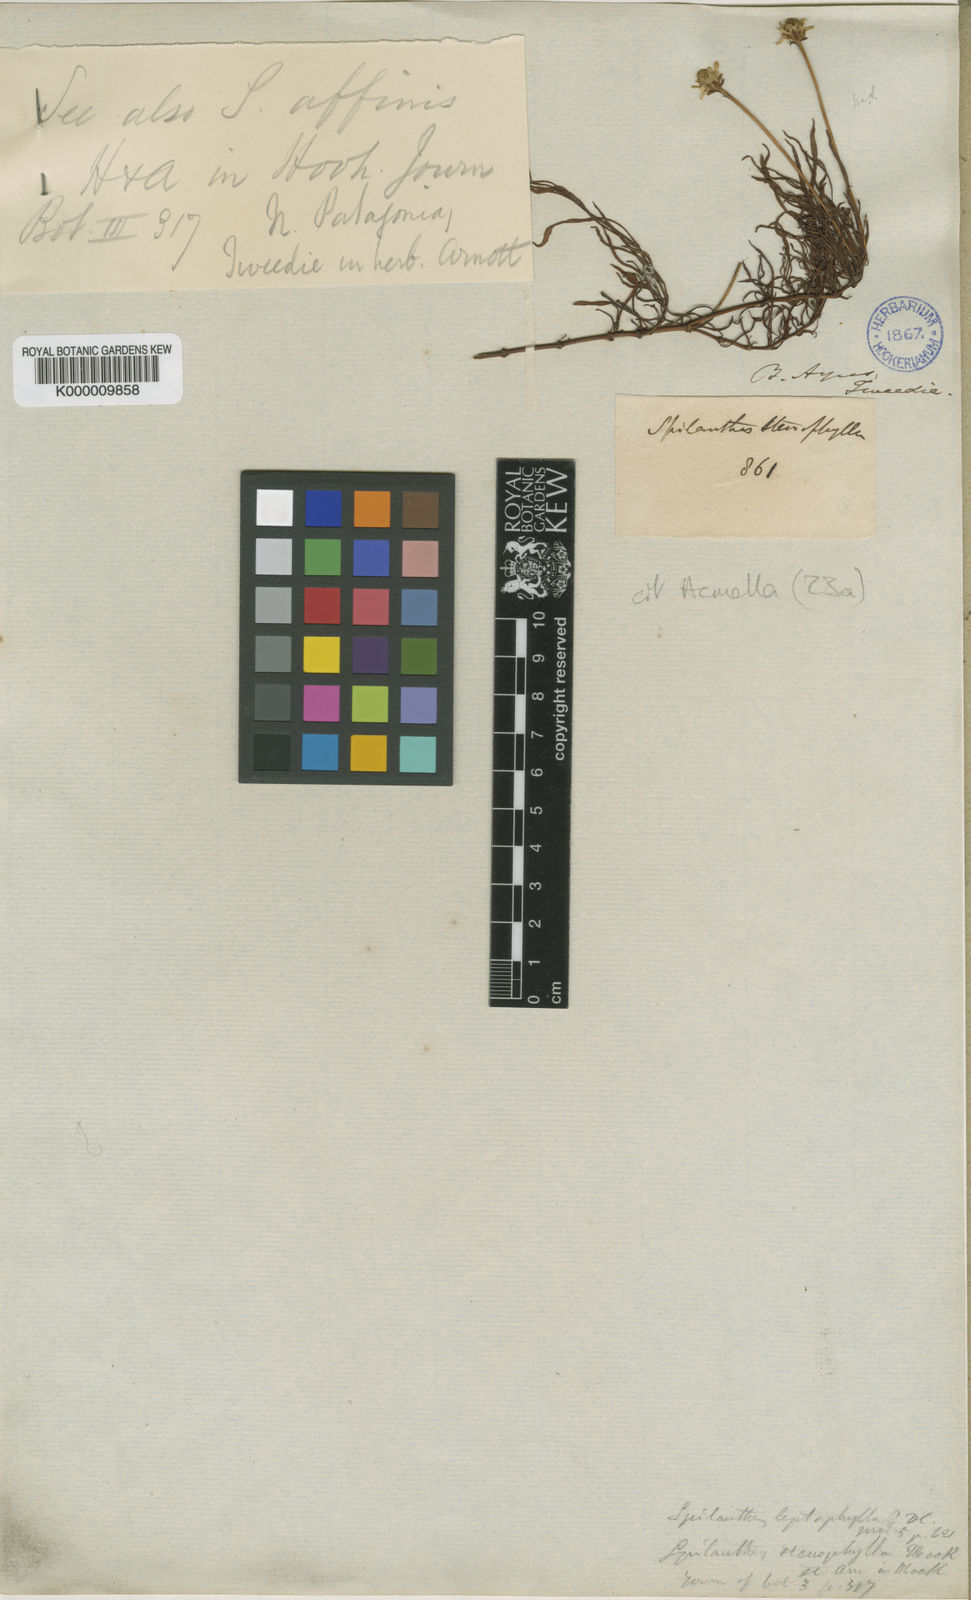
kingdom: Plantae
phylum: Tracheophyta
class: Magnoliopsida
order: Asterales
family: Asteraceae
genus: Acmella
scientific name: Acmella decumbens
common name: Creeping spotflower
